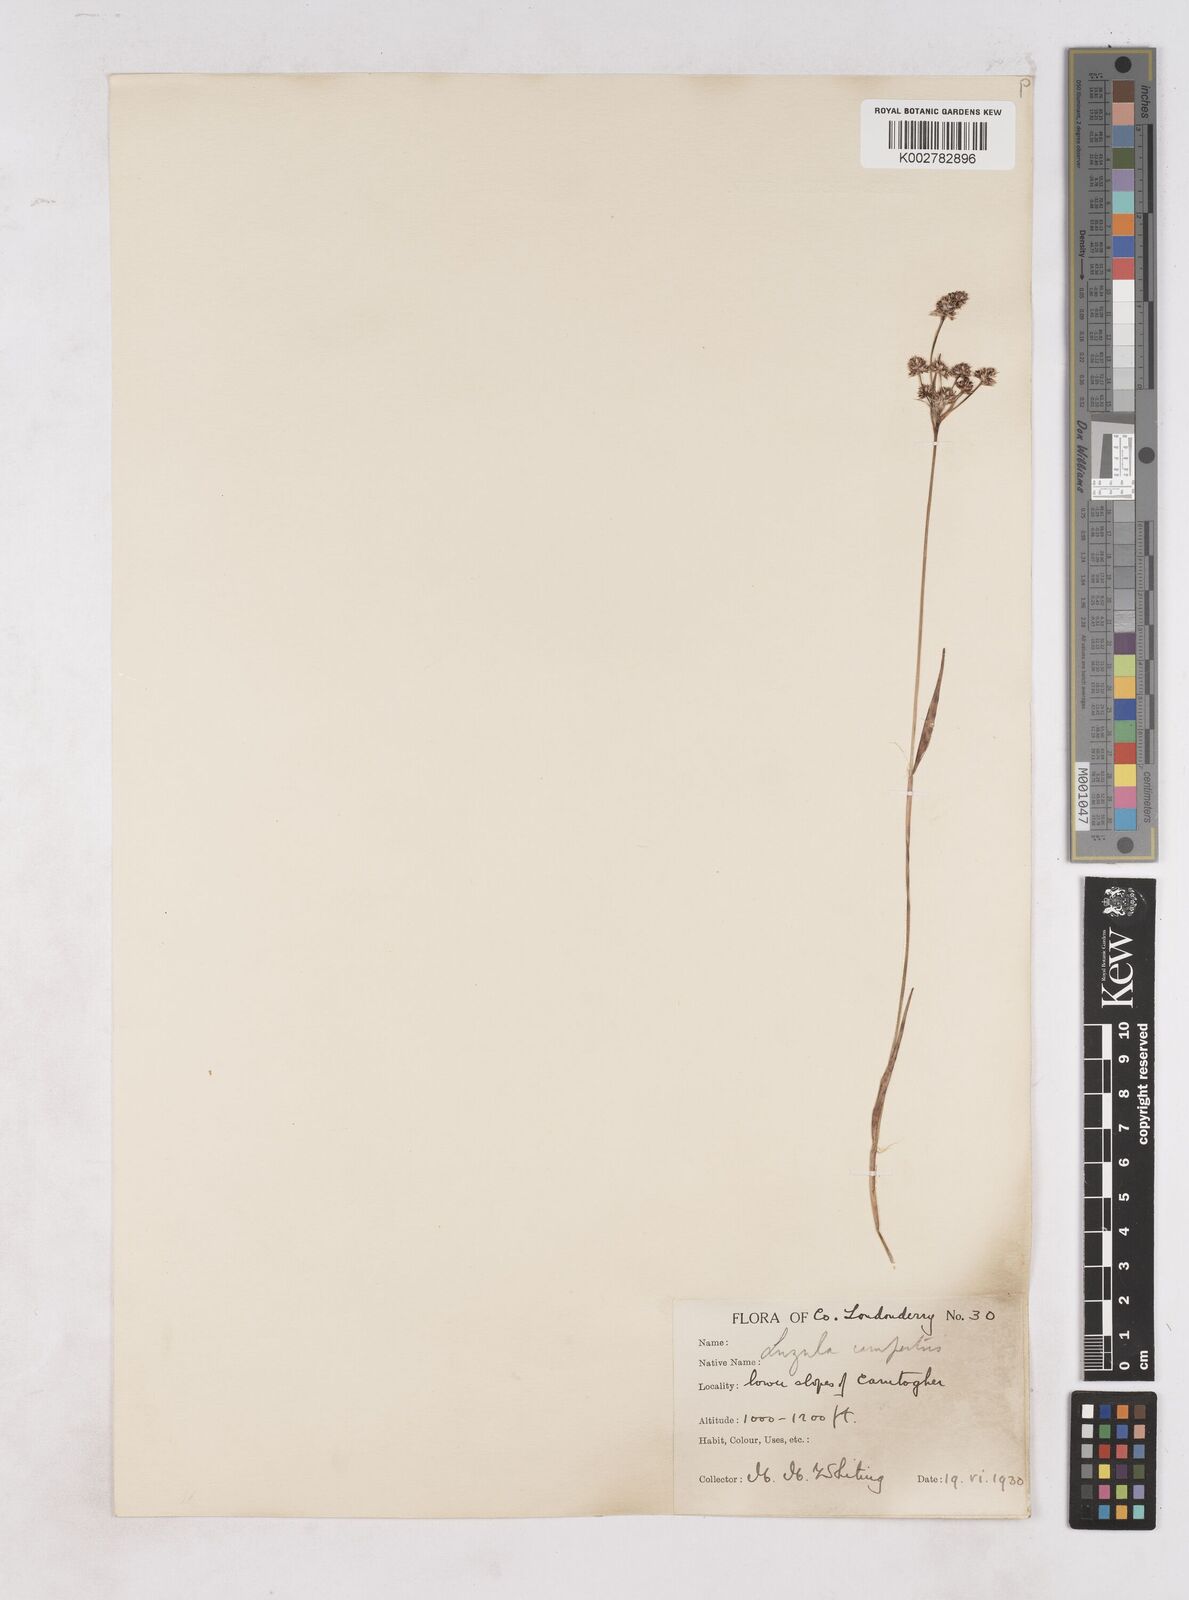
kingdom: Plantae
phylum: Tracheophyta
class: Liliopsida
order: Poales
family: Juncaceae
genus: Luzula
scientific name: Luzula campestris
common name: Field wood-rush
